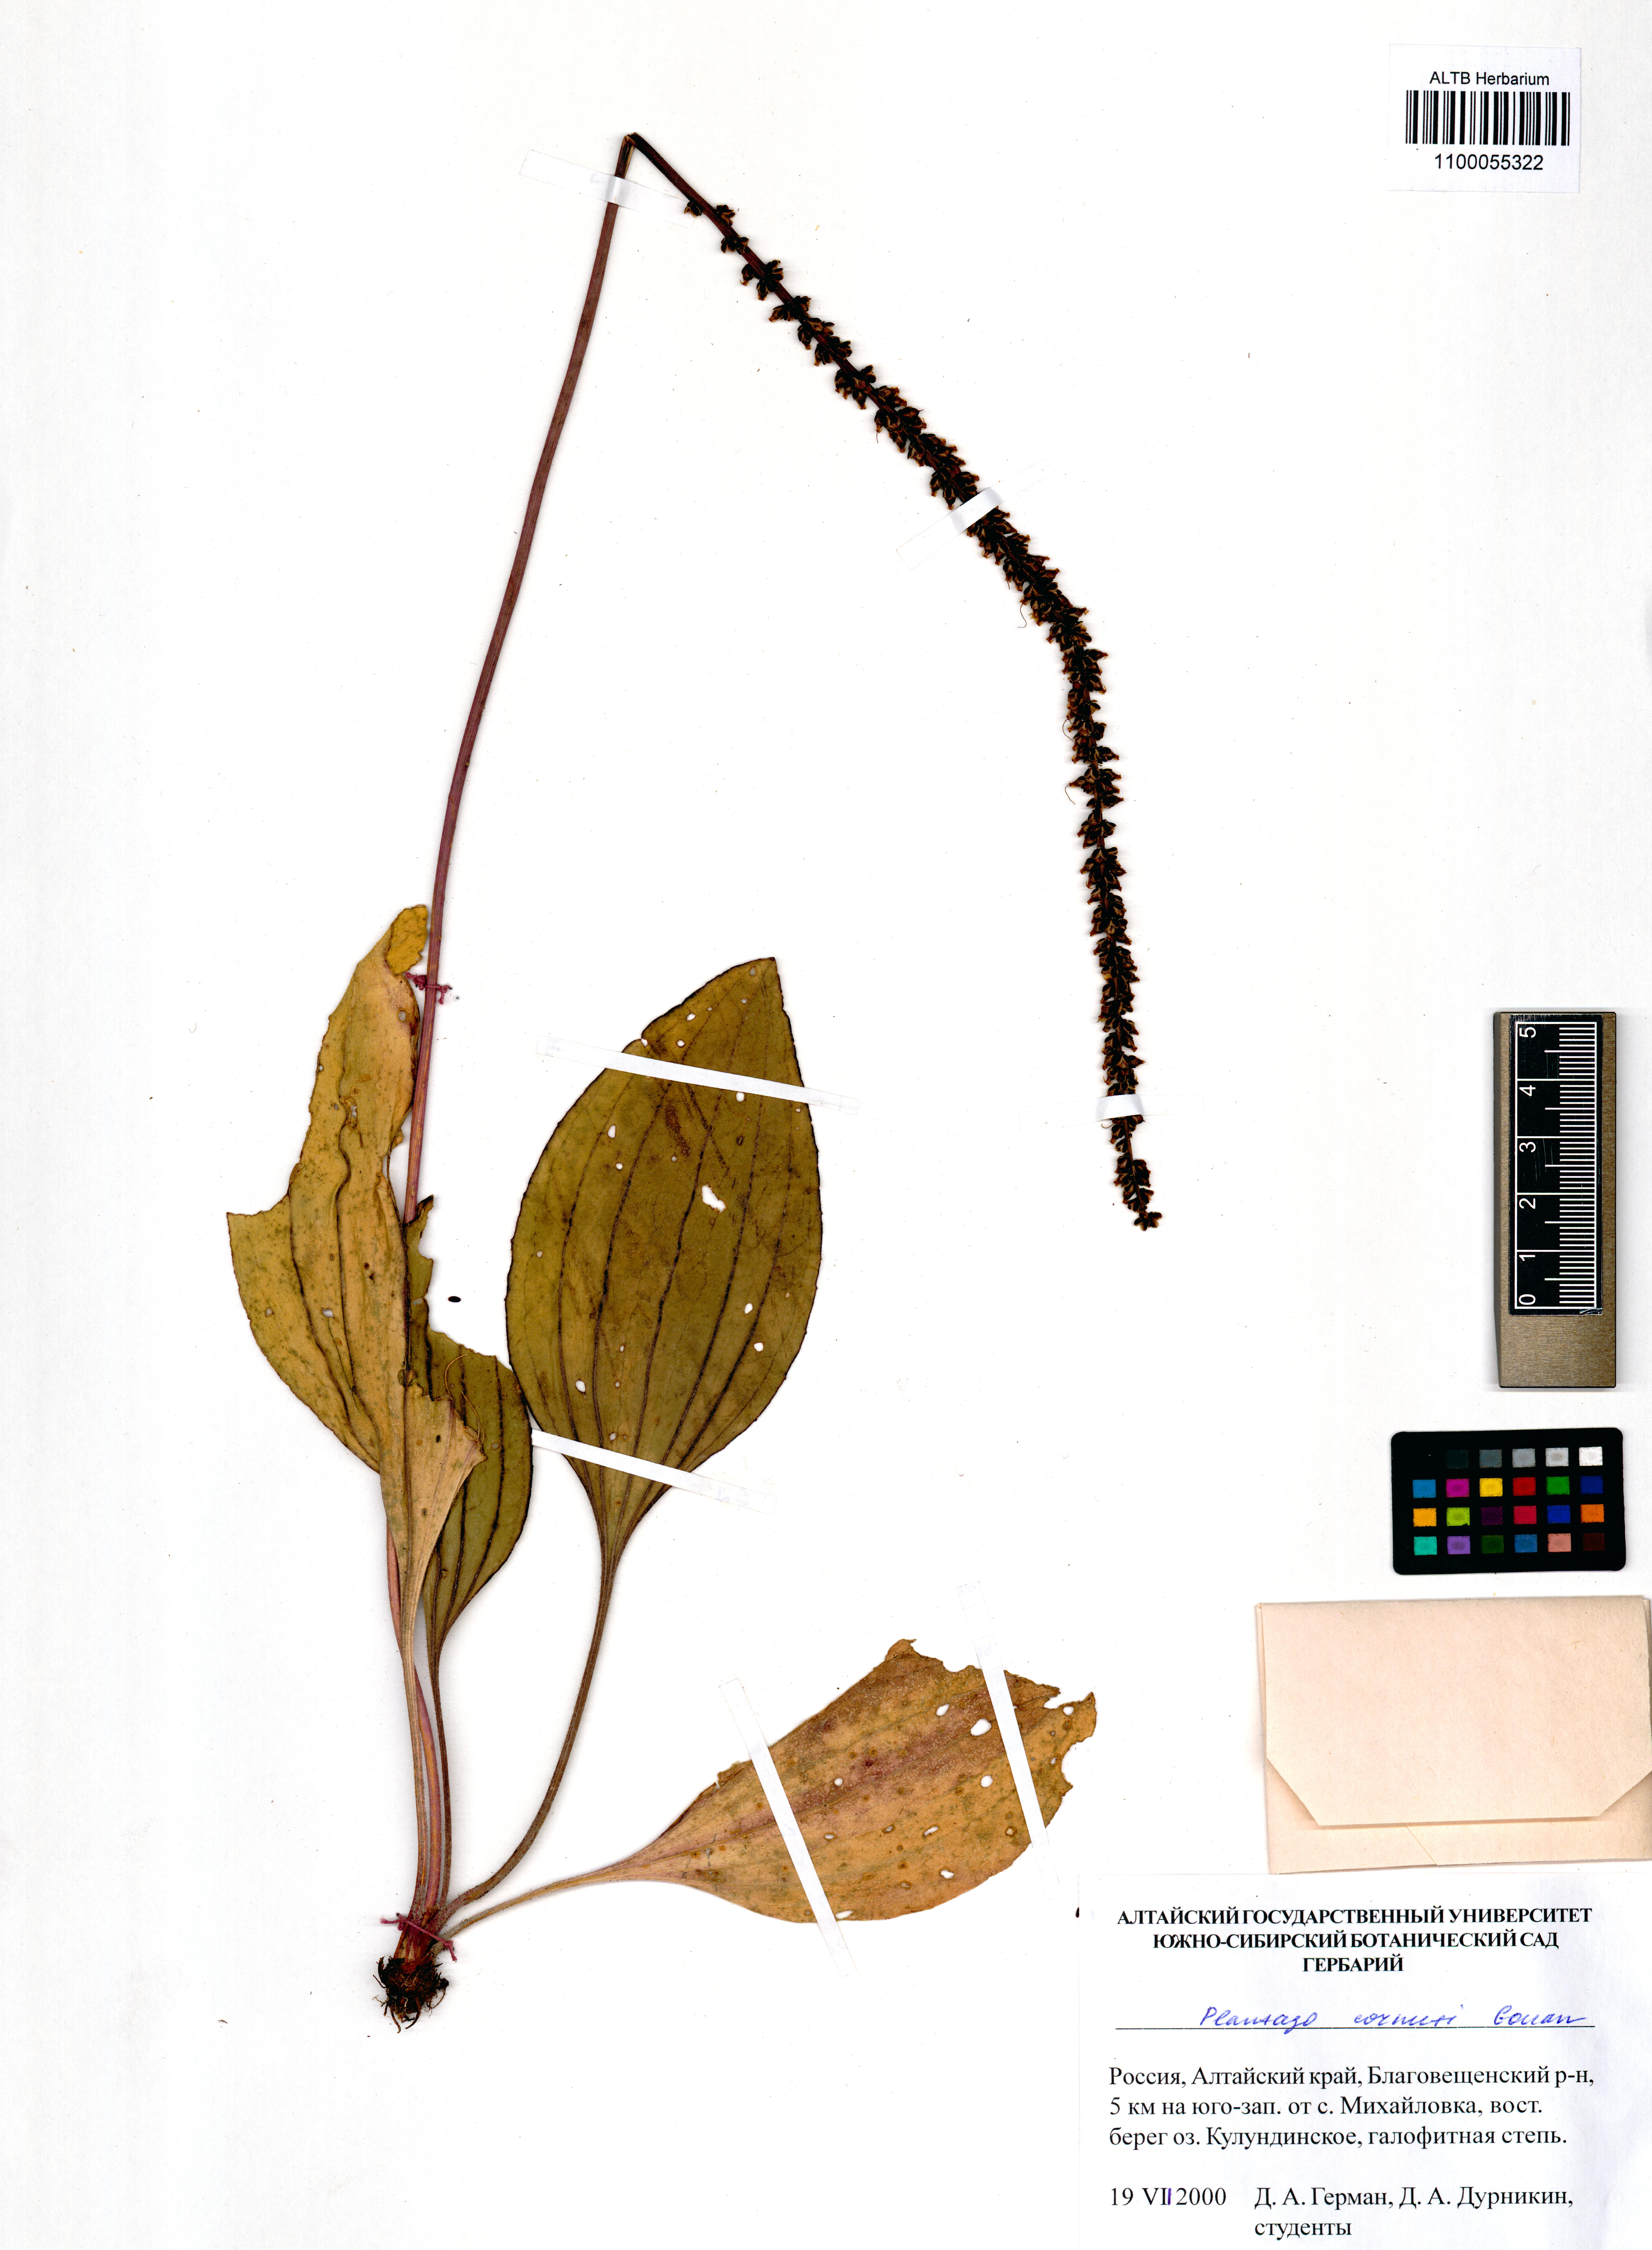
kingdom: Plantae
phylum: Tracheophyta
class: Magnoliopsida
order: Lamiales
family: Plantaginaceae
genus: Plantago
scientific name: Plantago cornuti
